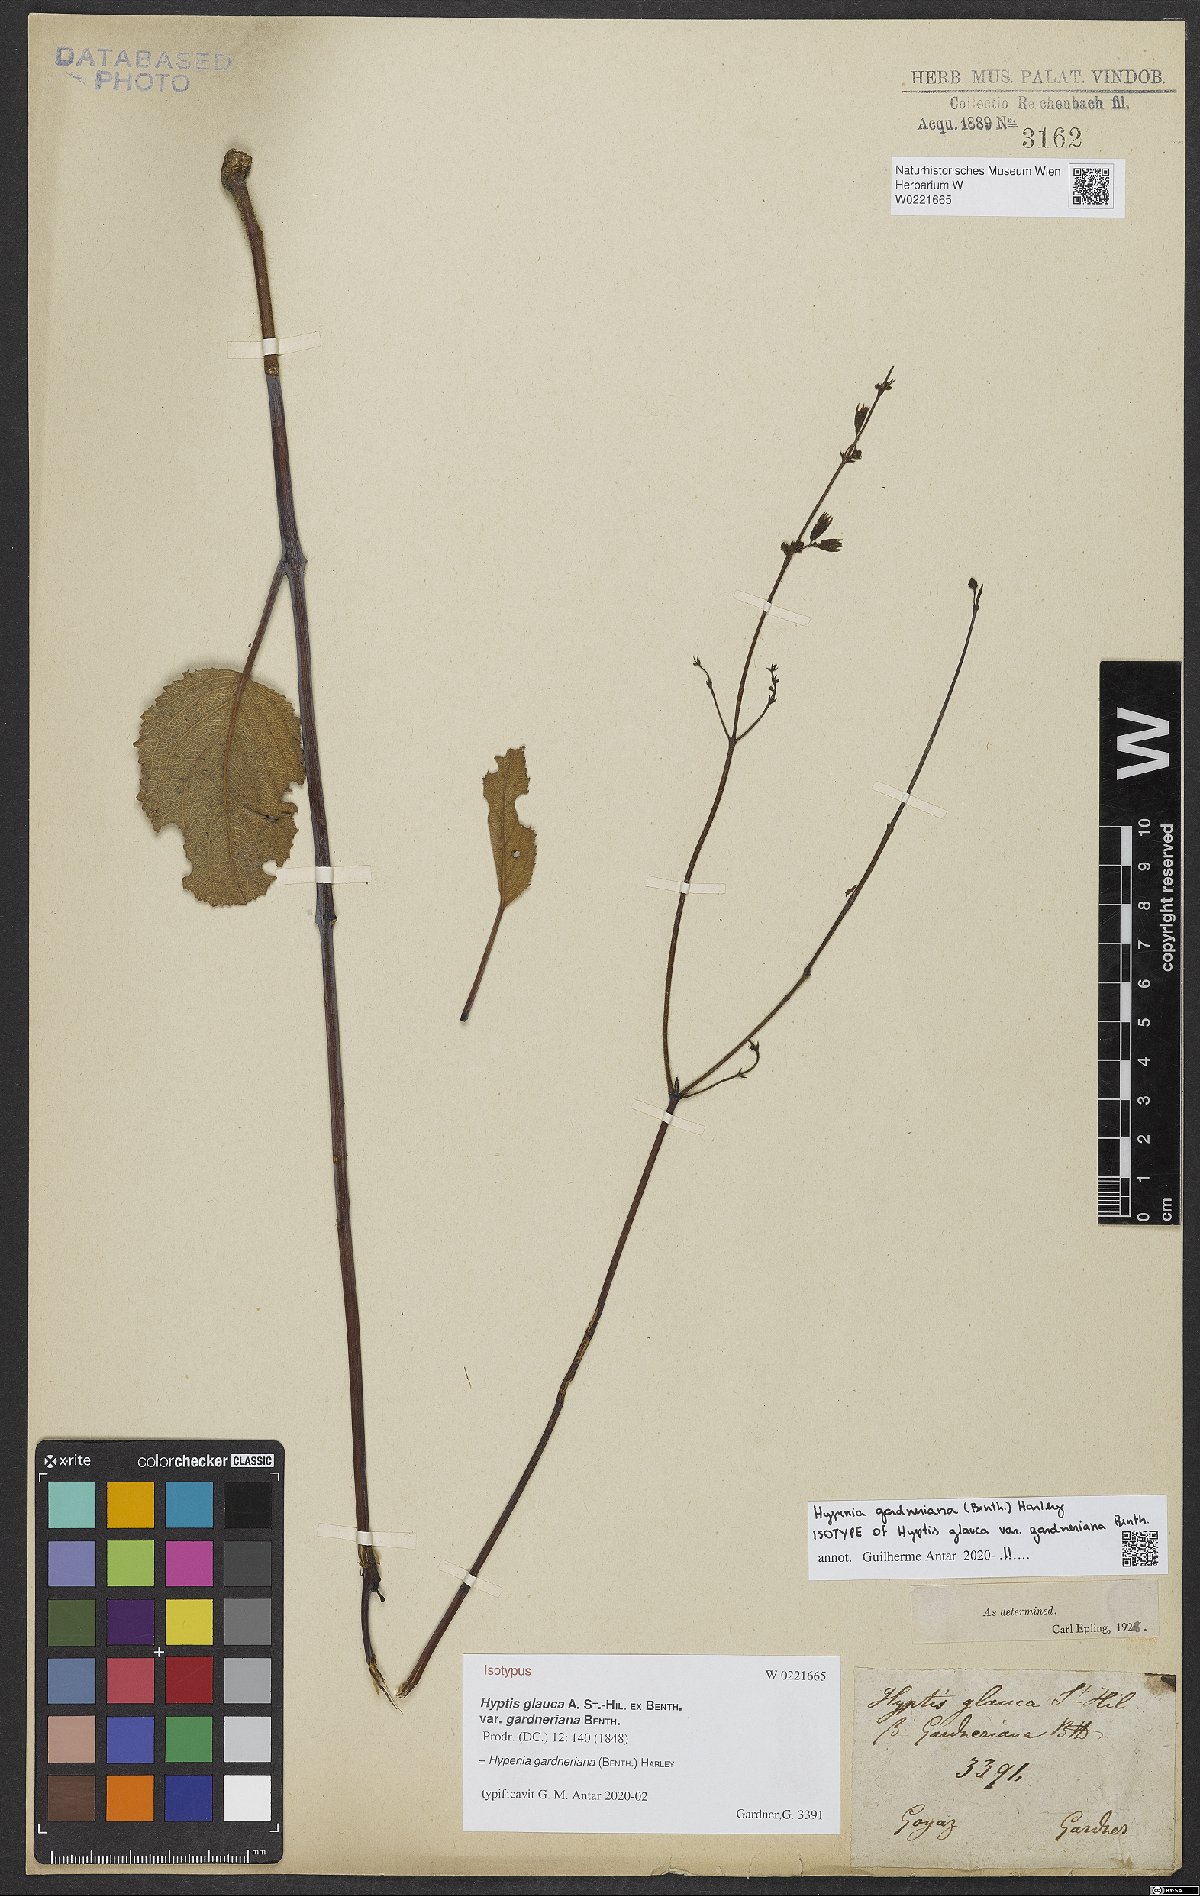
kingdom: Plantae
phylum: Tracheophyta
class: Magnoliopsida
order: Lamiales
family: Lamiaceae
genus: Hypenia
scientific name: Hypenia gardneriana
